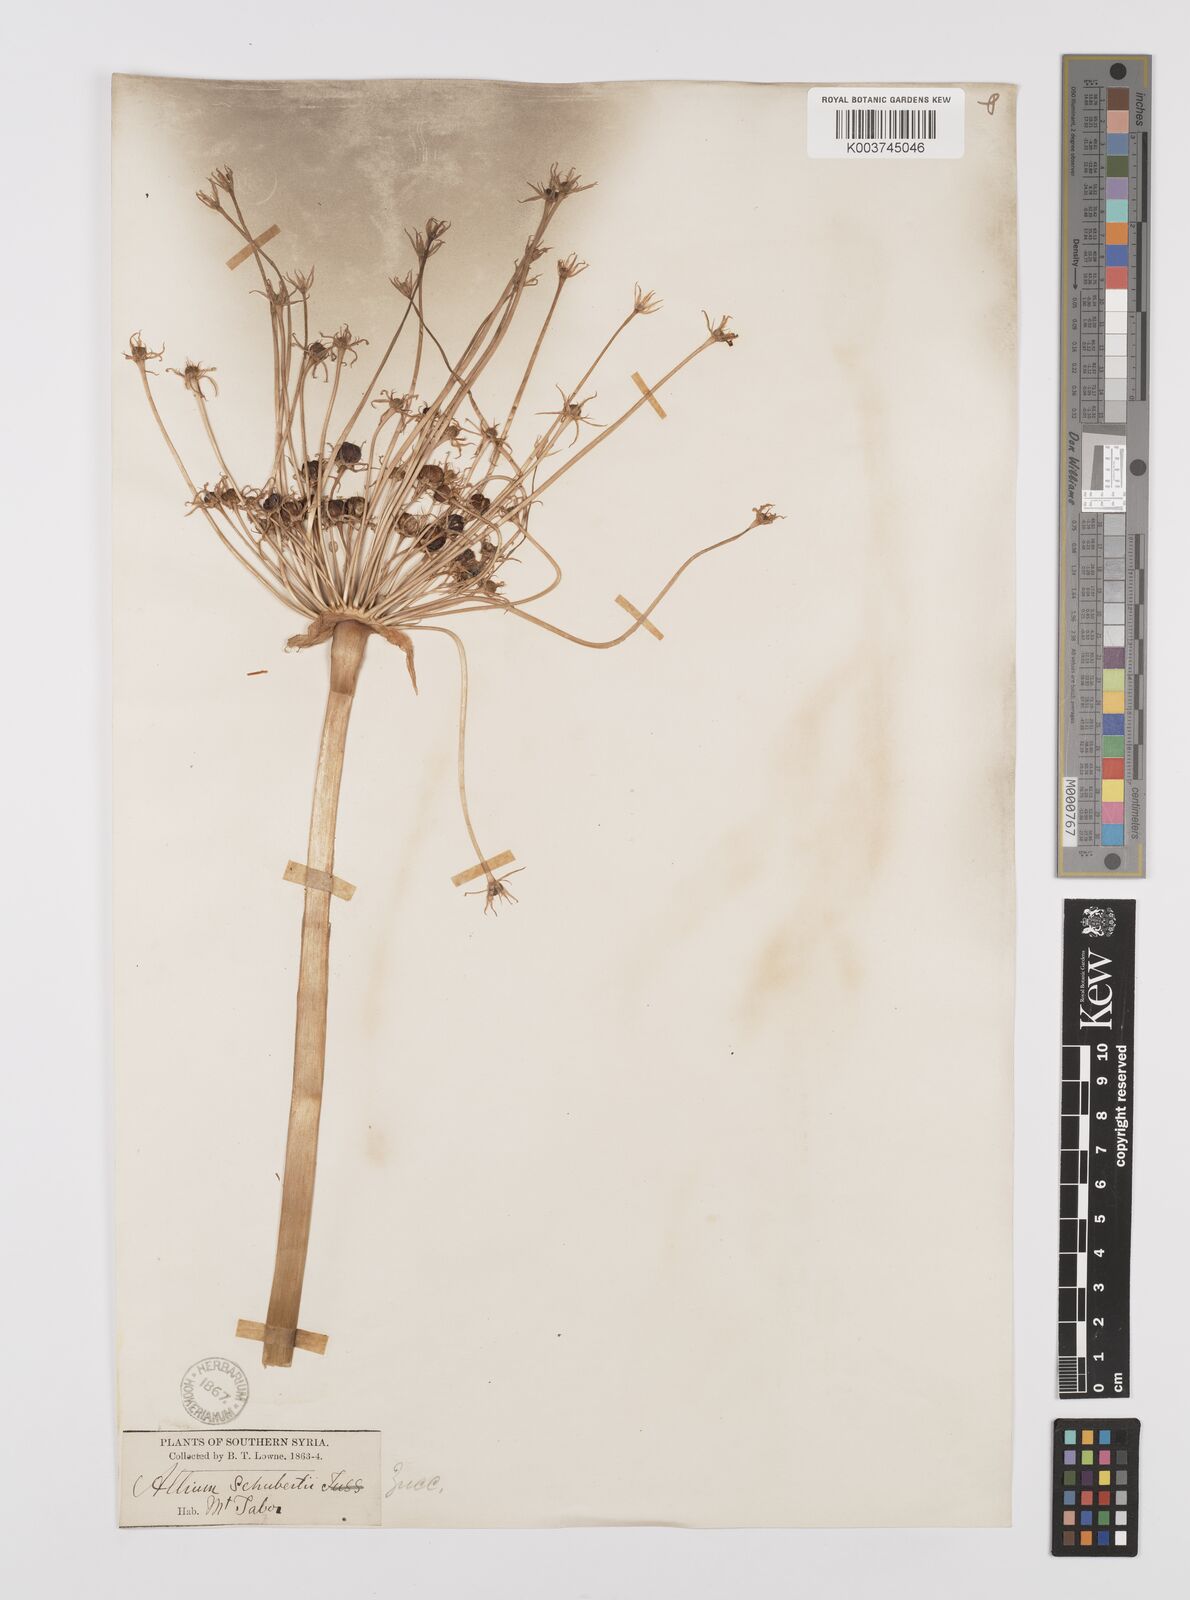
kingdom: Plantae
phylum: Tracheophyta
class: Liliopsida
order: Asparagales
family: Amaryllidaceae
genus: Allium
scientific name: Allium schubertii
